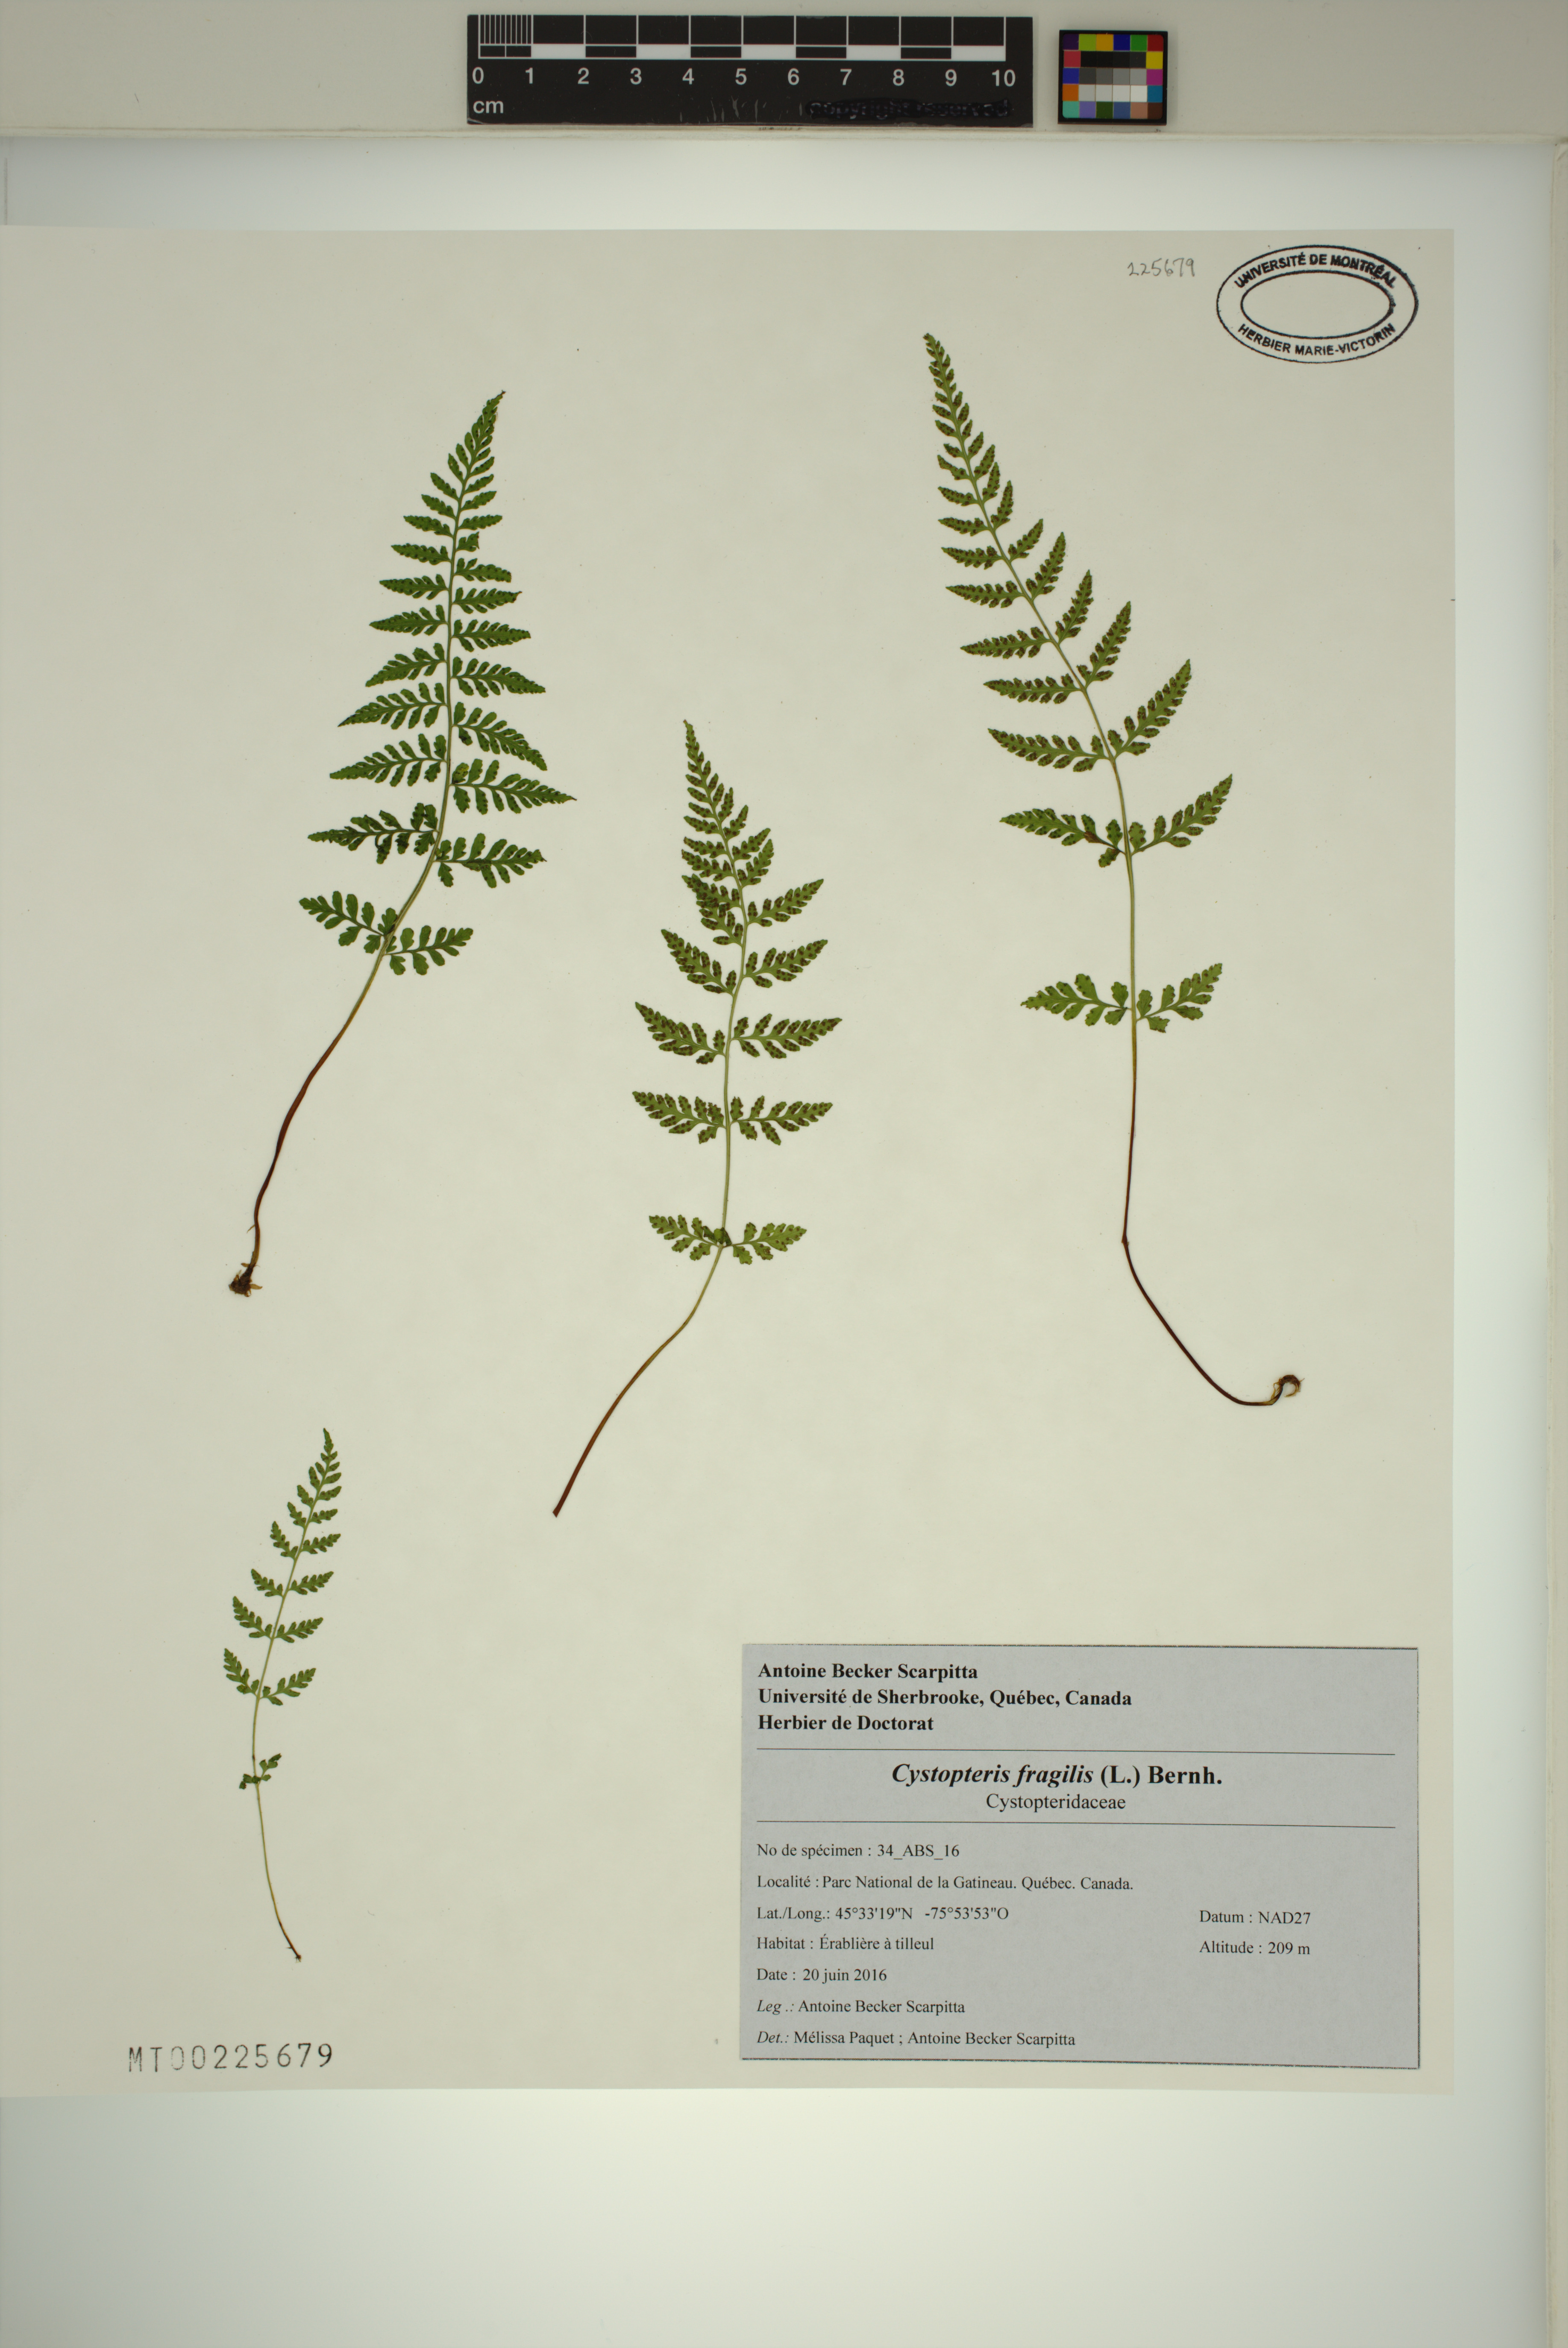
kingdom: Plantae
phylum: Tracheophyta
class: Polypodiopsida
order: Polypodiales
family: Cystopteridaceae
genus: Cystopteris
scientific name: Cystopteris fragilis
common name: Brittle bladder fern
